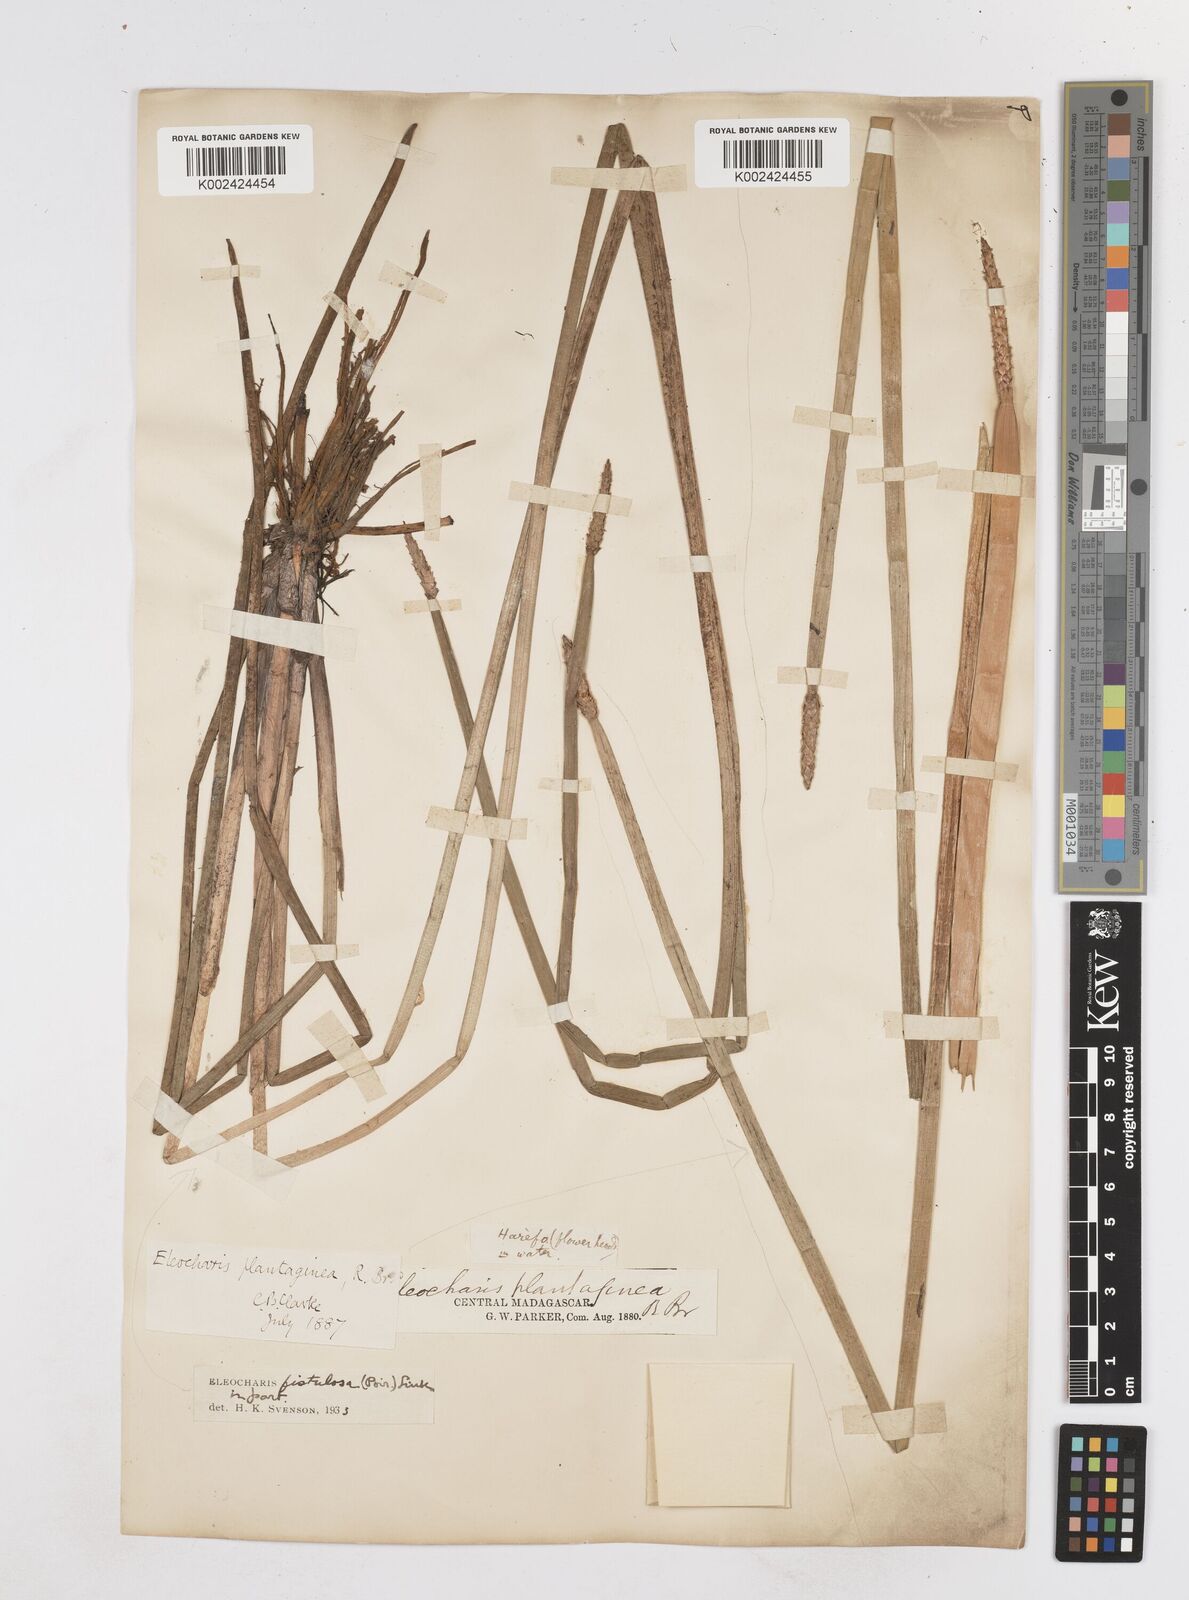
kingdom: Plantae
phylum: Tracheophyta
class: Liliopsida
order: Poales
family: Cyperaceae
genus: Eleocharis
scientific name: Eleocharis acutangula
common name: Acute spikerush
